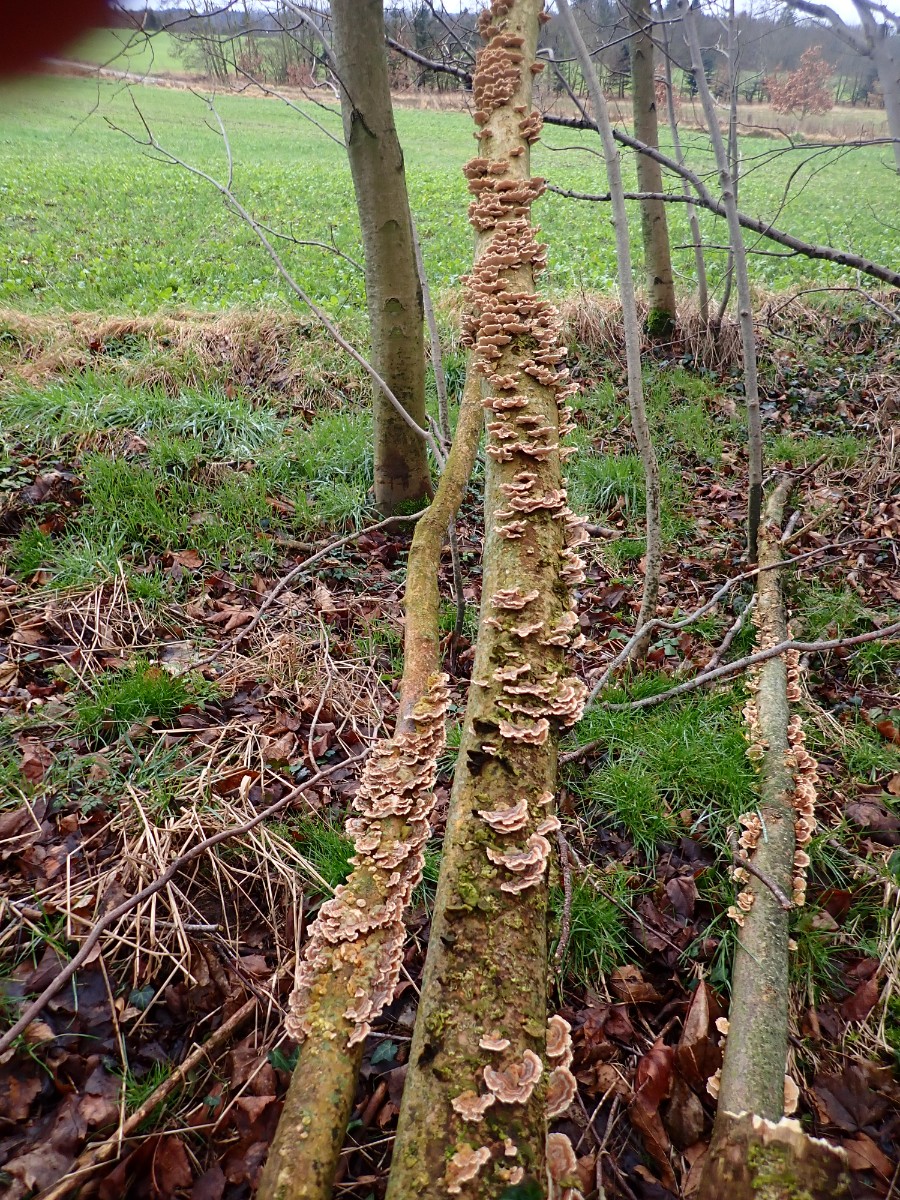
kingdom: Fungi
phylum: Basidiomycota
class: Agaricomycetes
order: Polyporales
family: Polyporaceae
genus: Trametes
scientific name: Trametes versicolor
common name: broget læderporesvamp
